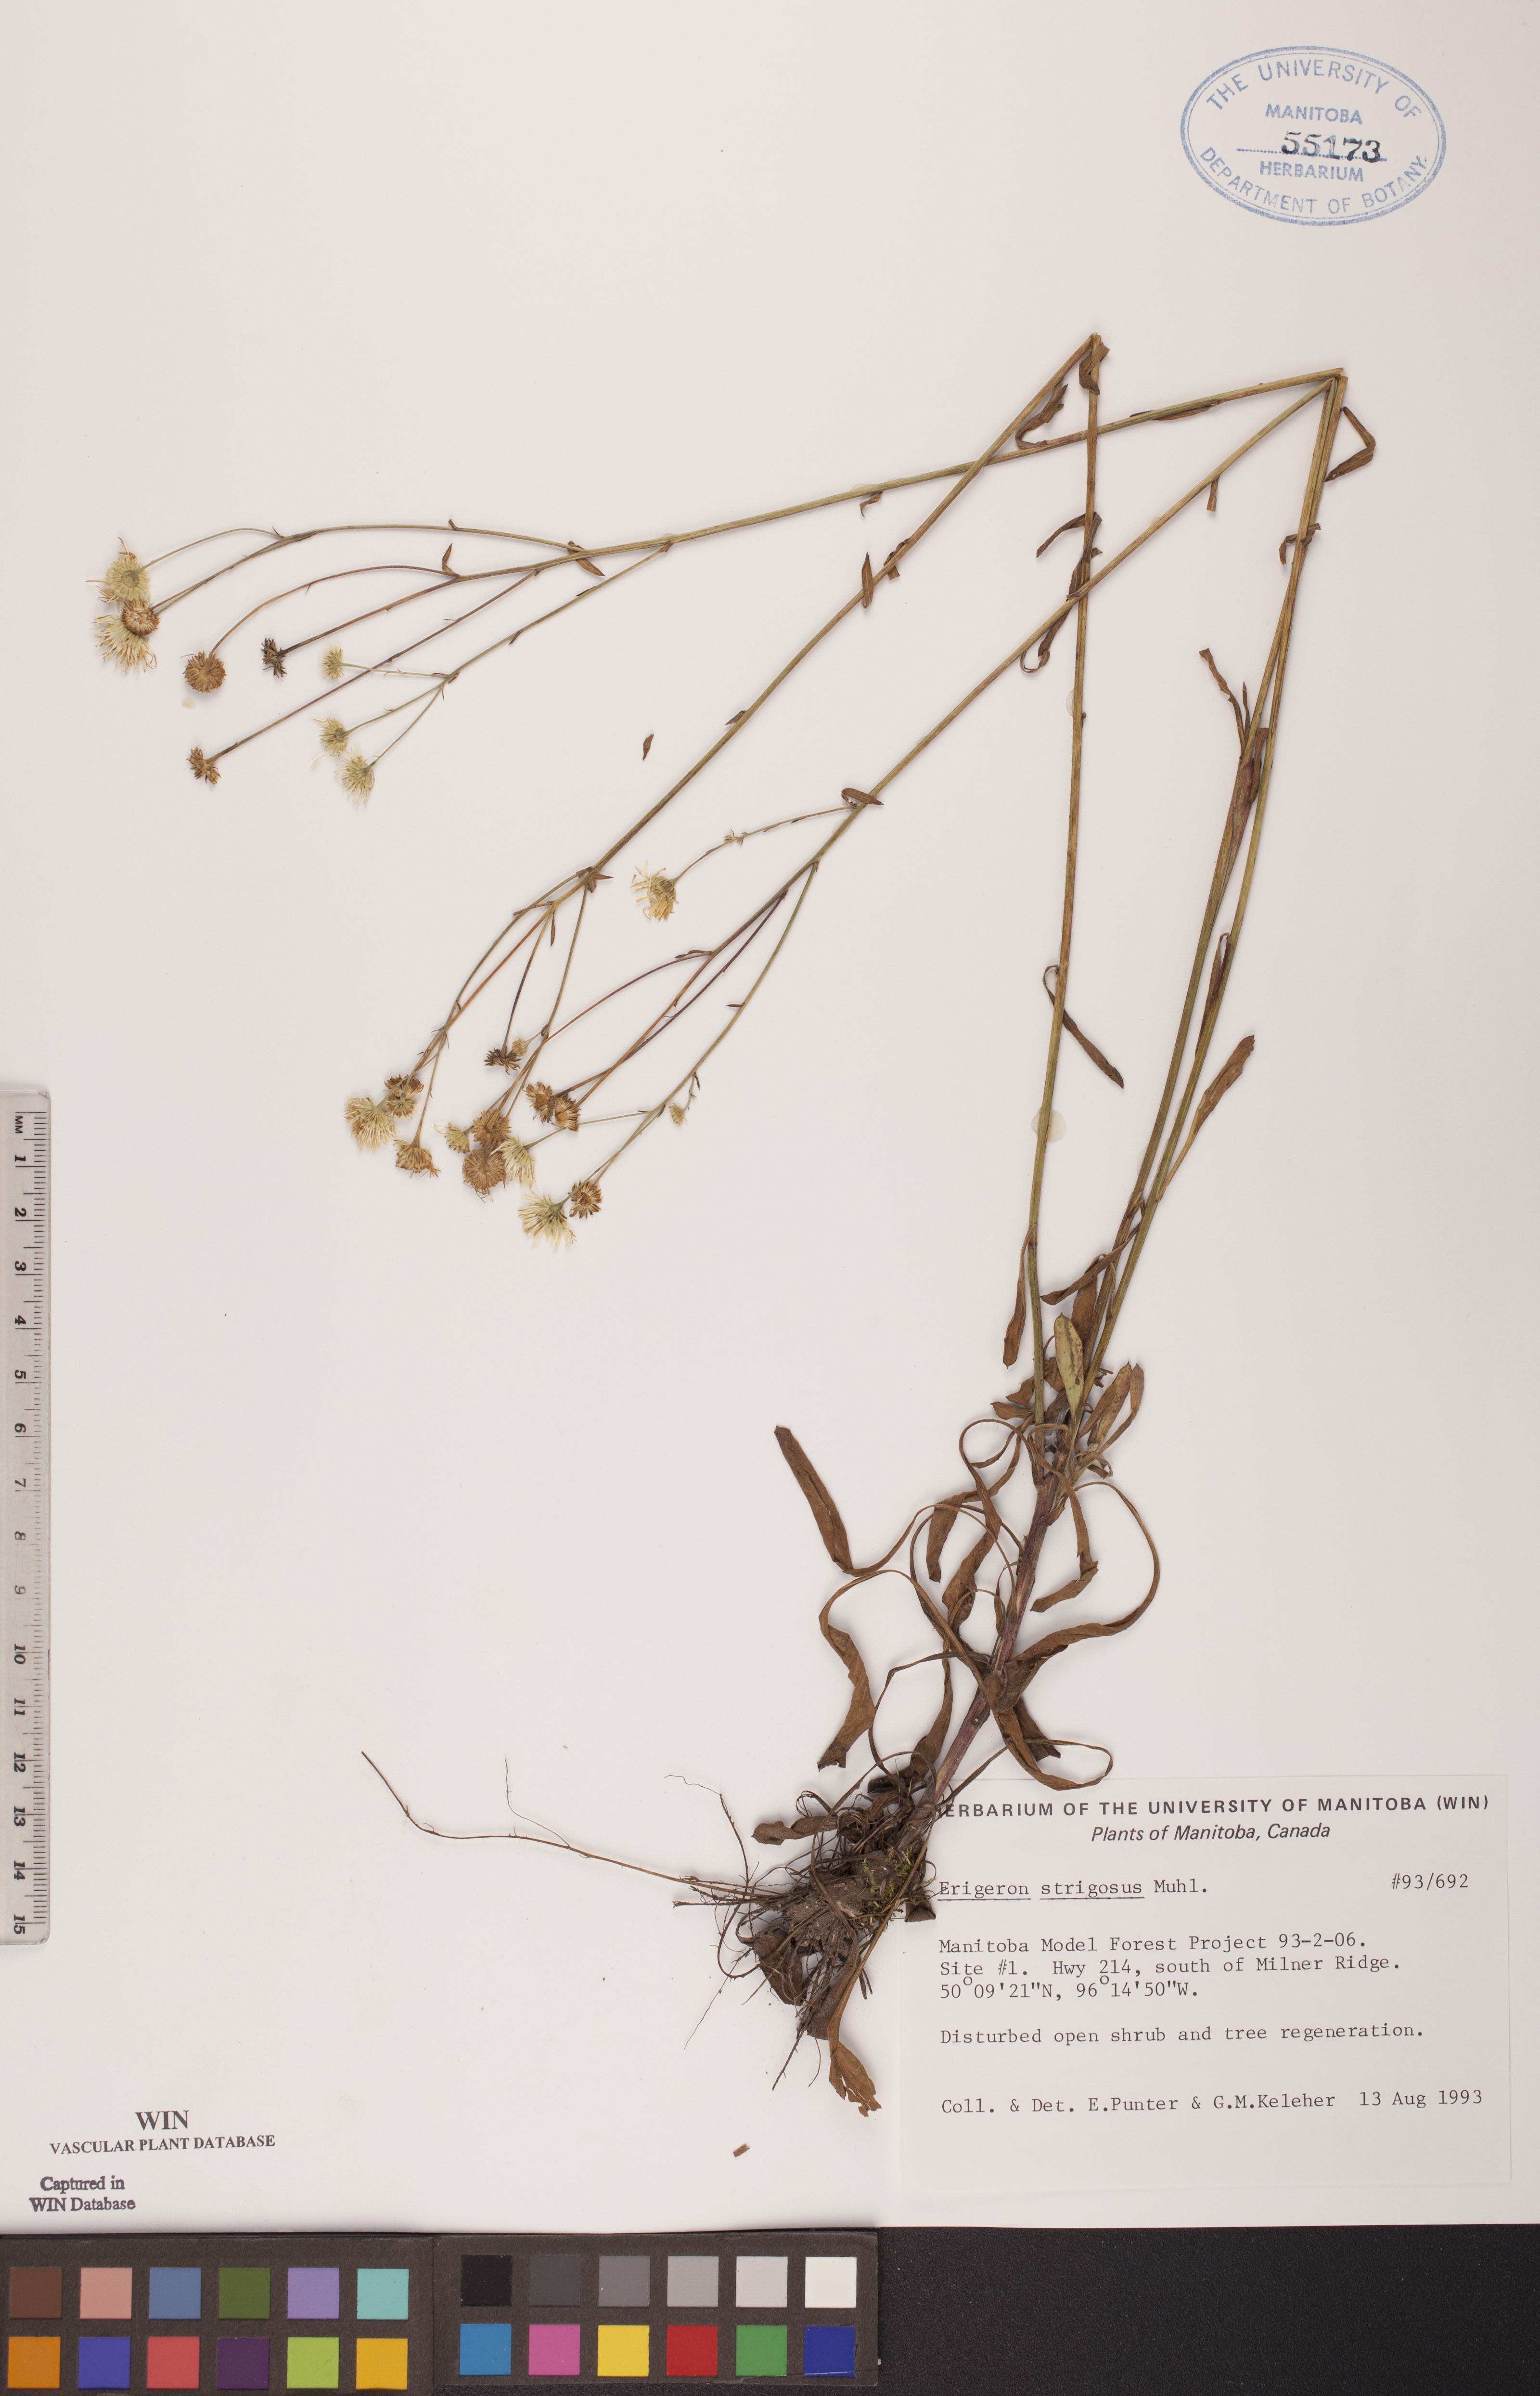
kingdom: Plantae
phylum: Tracheophyta
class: Magnoliopsida
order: Asterales
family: Asteraceae
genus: Erigeron
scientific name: Erigeron strigosus
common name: Common eastern fleabane
